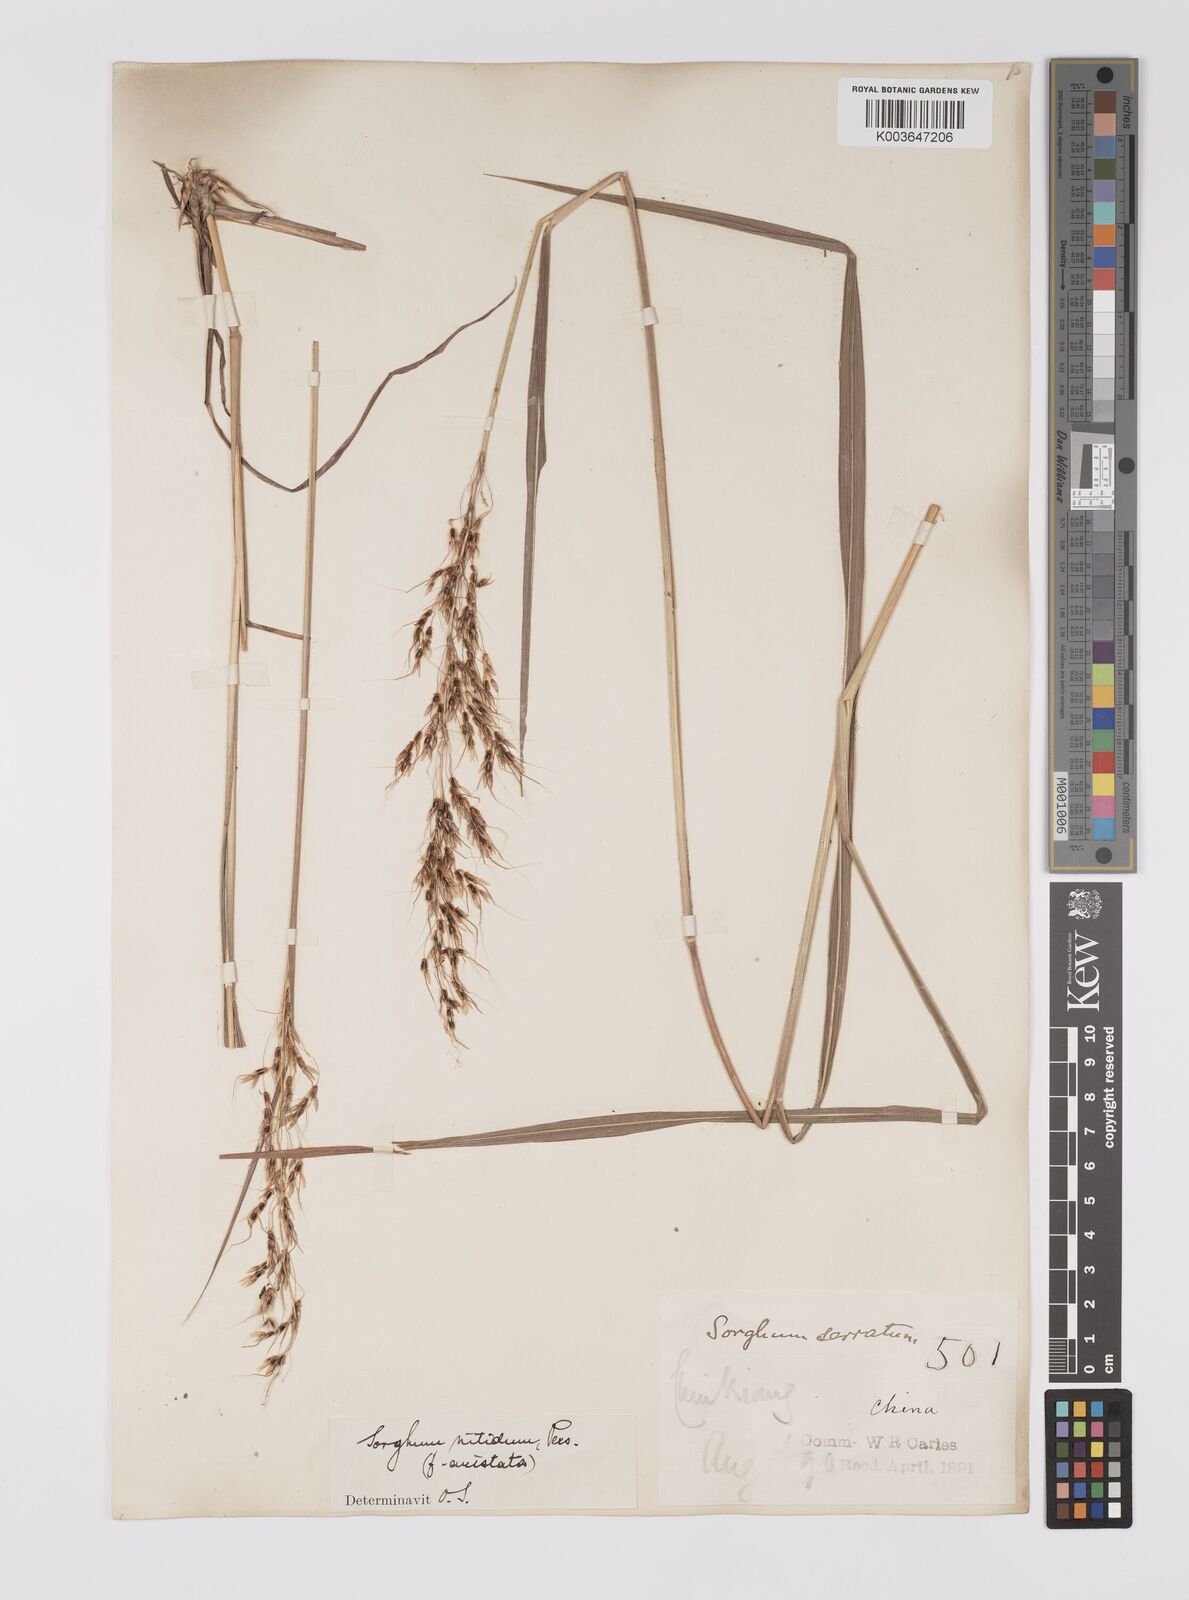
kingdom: Plantae
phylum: Tracheophyta
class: Liliopsida
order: Poales
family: Poaceae
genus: Sorghum
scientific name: Sorghum nitidum
